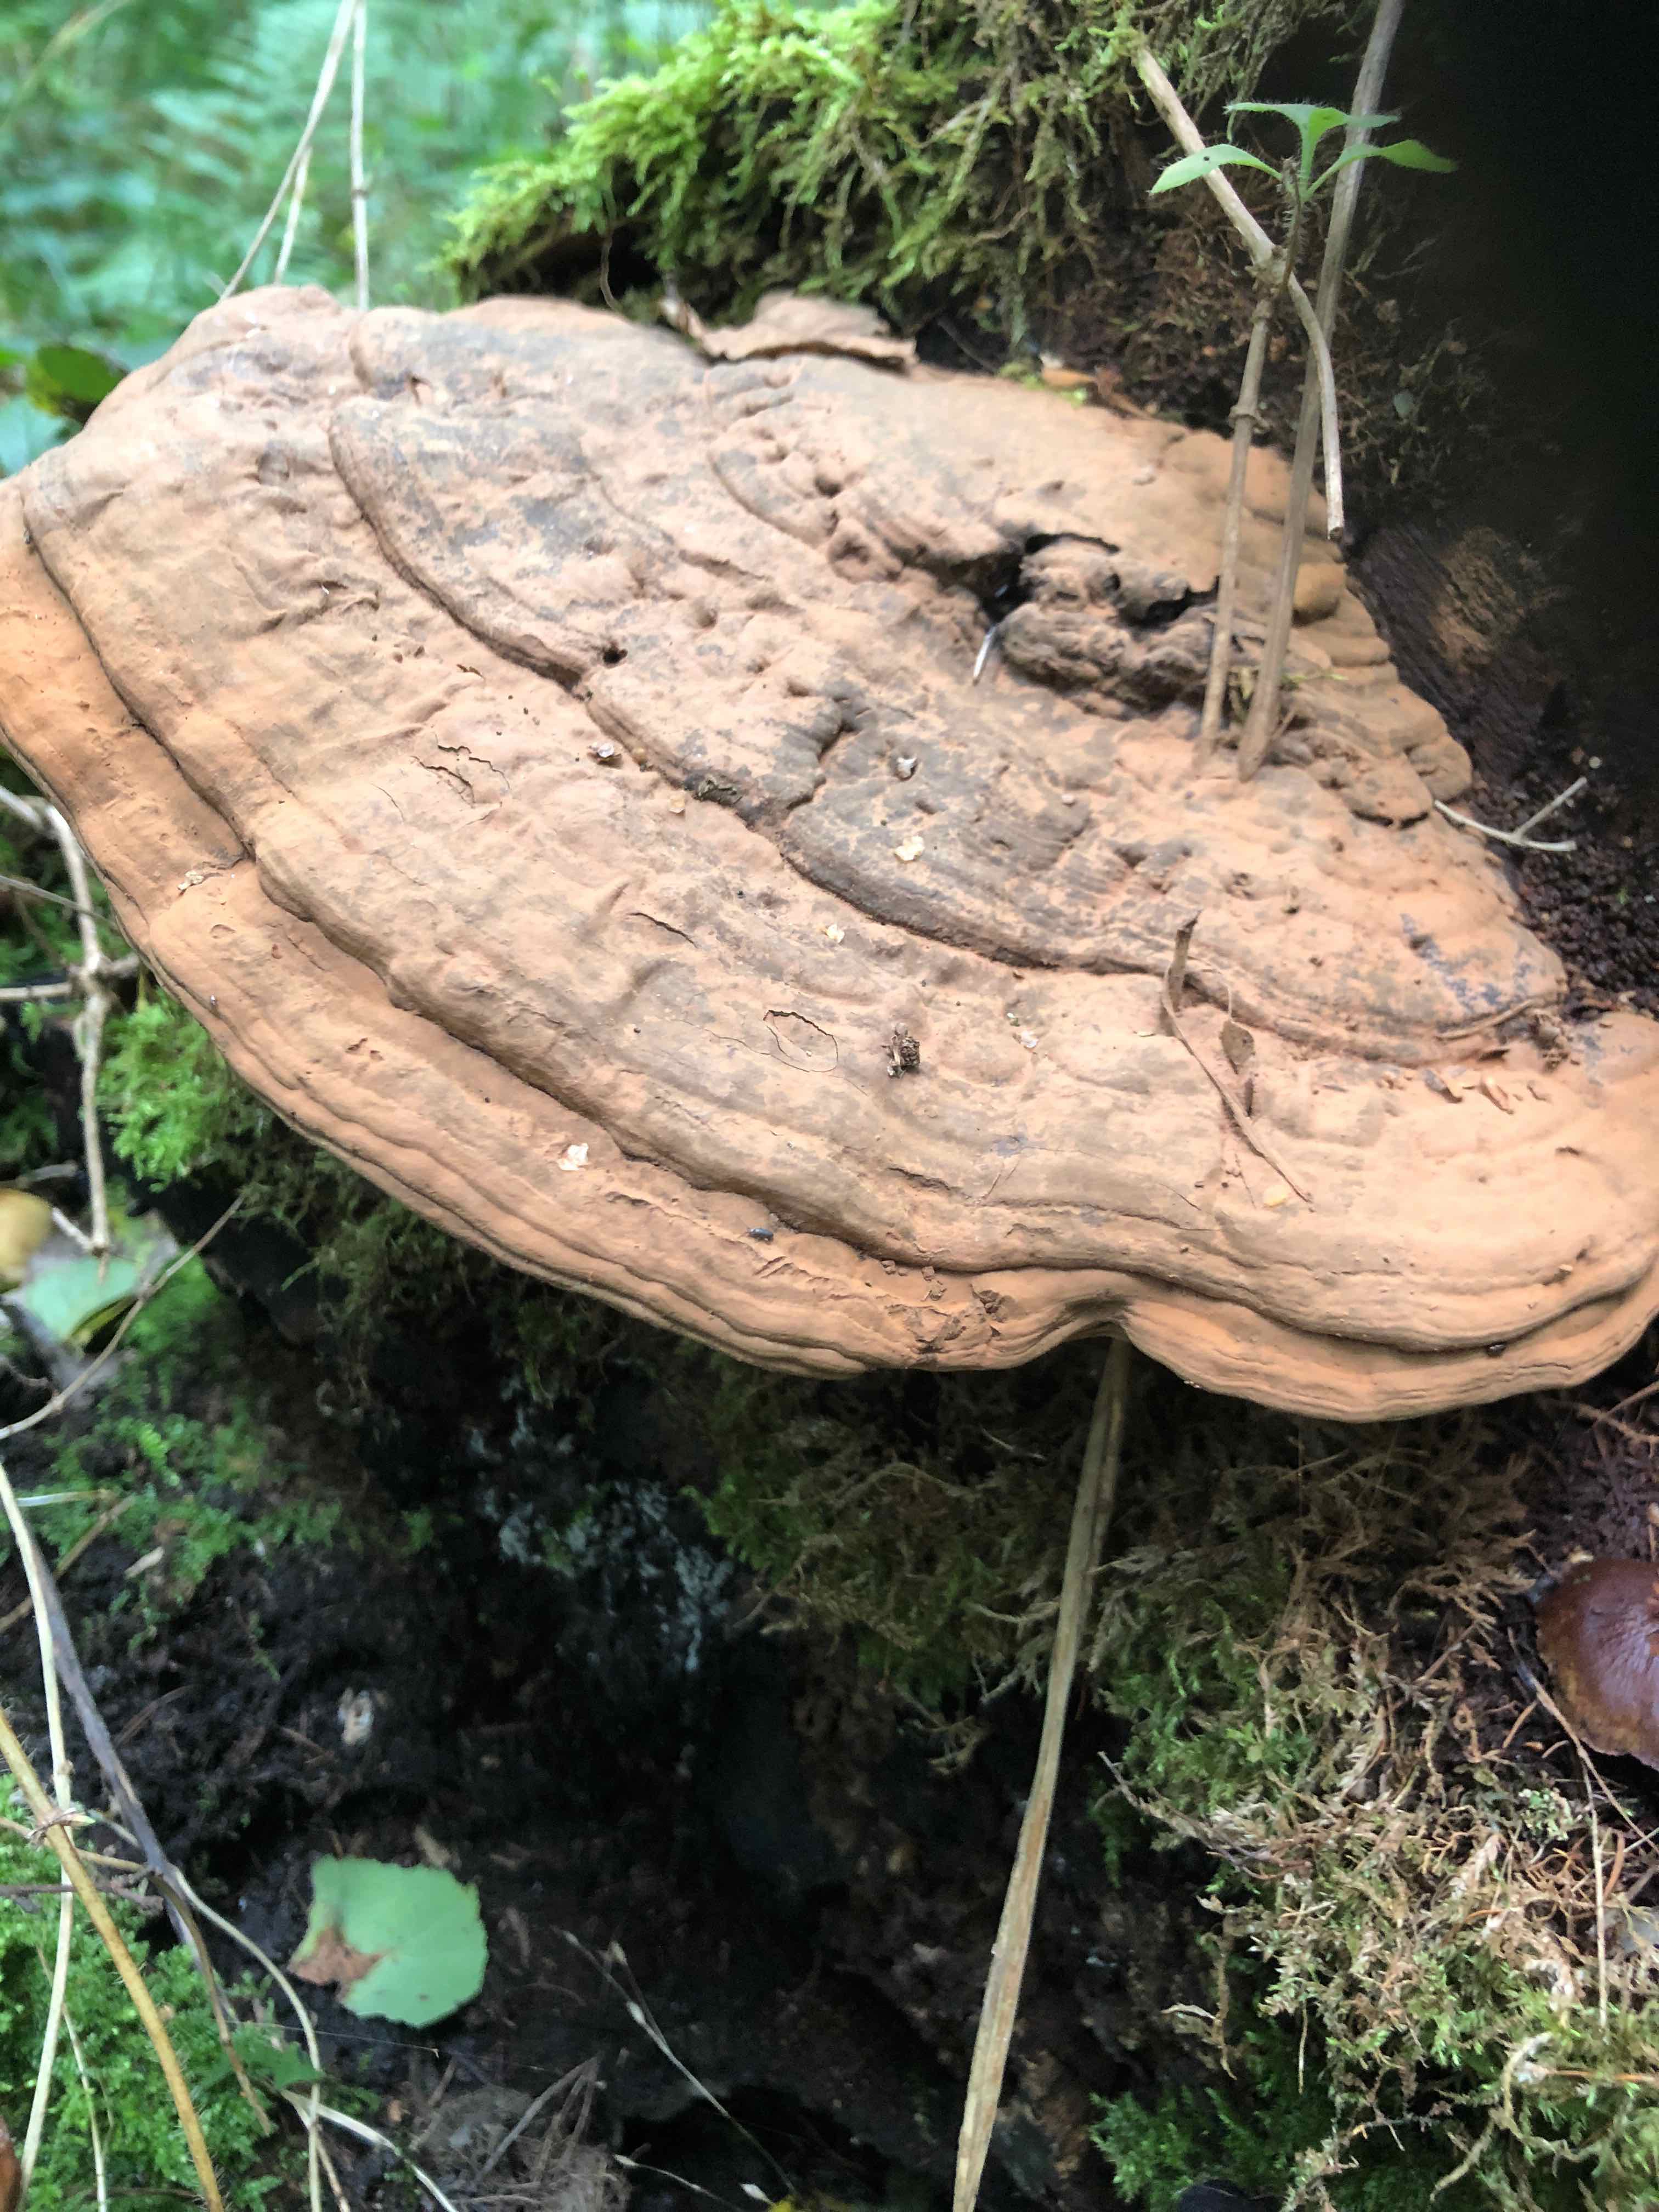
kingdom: Fungi
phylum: Basidiomycota
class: Agaricomycetes
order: Polyporales
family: Polyporaceae
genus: Ganoderma
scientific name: Ganoderma applanatum
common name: flad lakporesvamp
